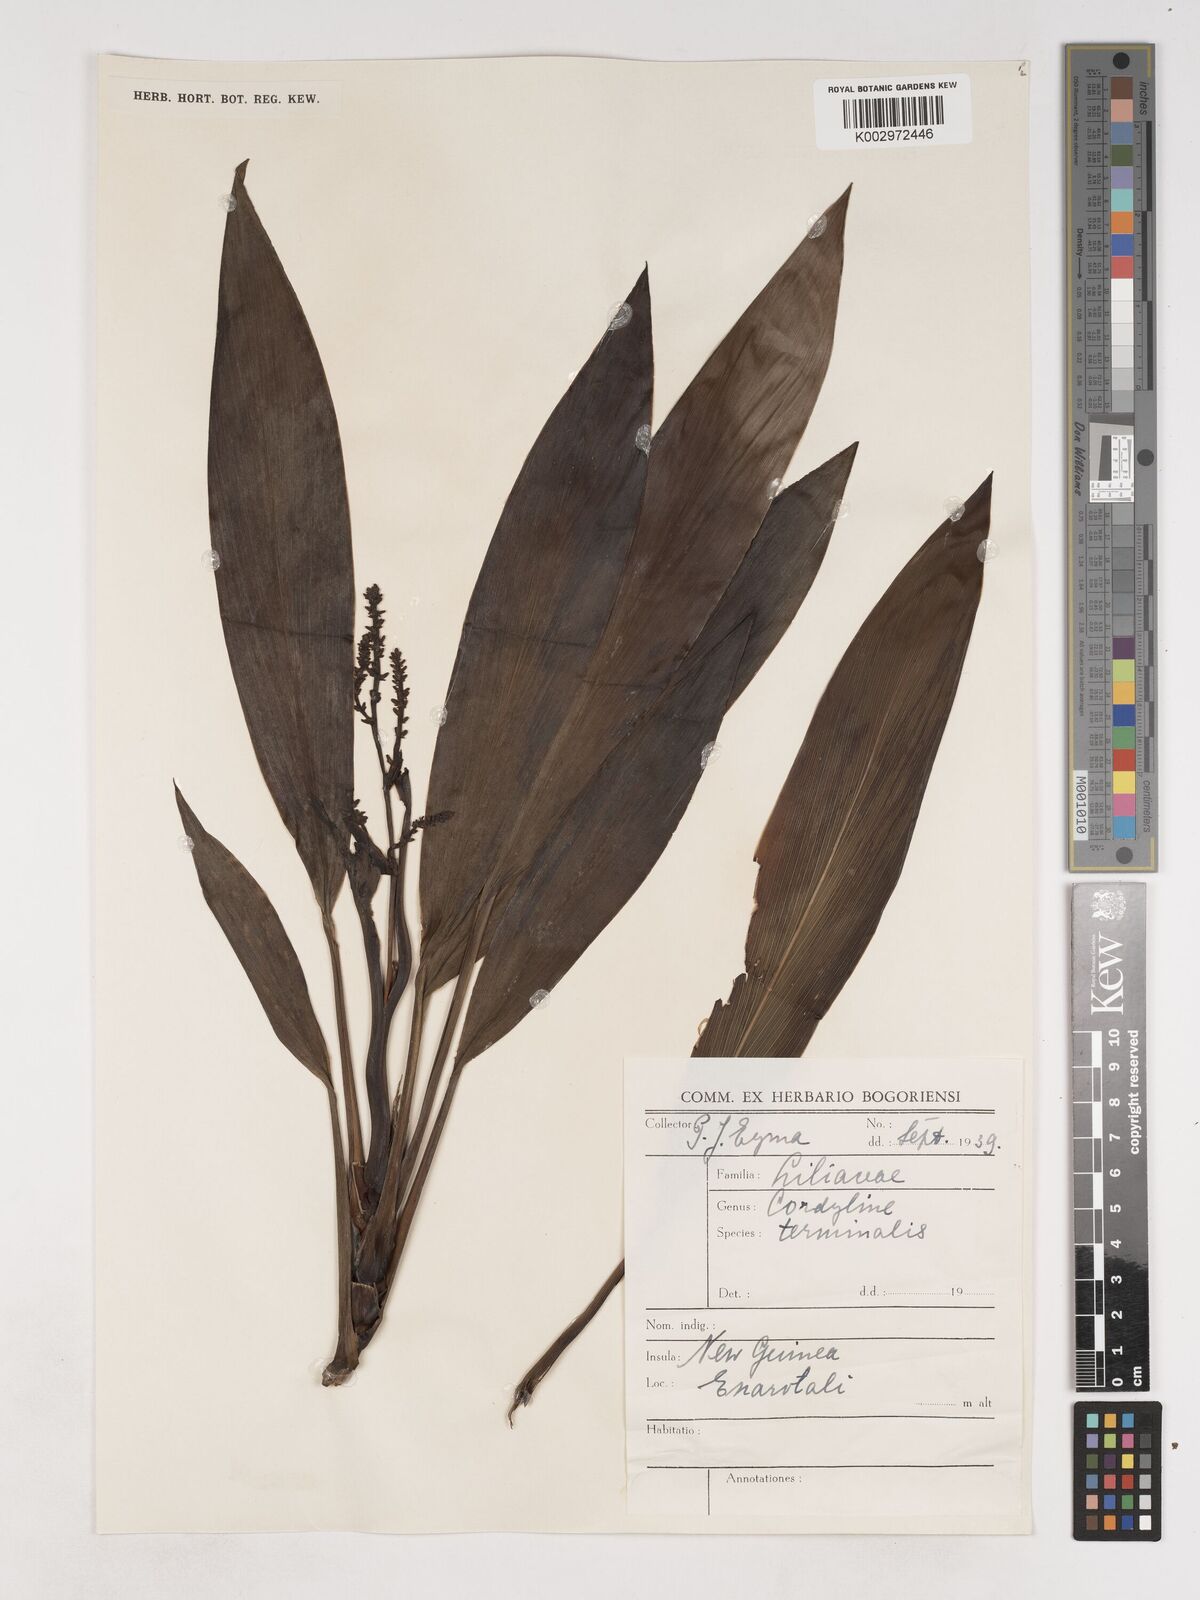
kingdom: Plantae
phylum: Tracheophyta
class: Liliopsida
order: Asparagales
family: Asparagaceae
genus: Cordyline
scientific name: Cordyline fruticosa
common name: Good-luck-plant
